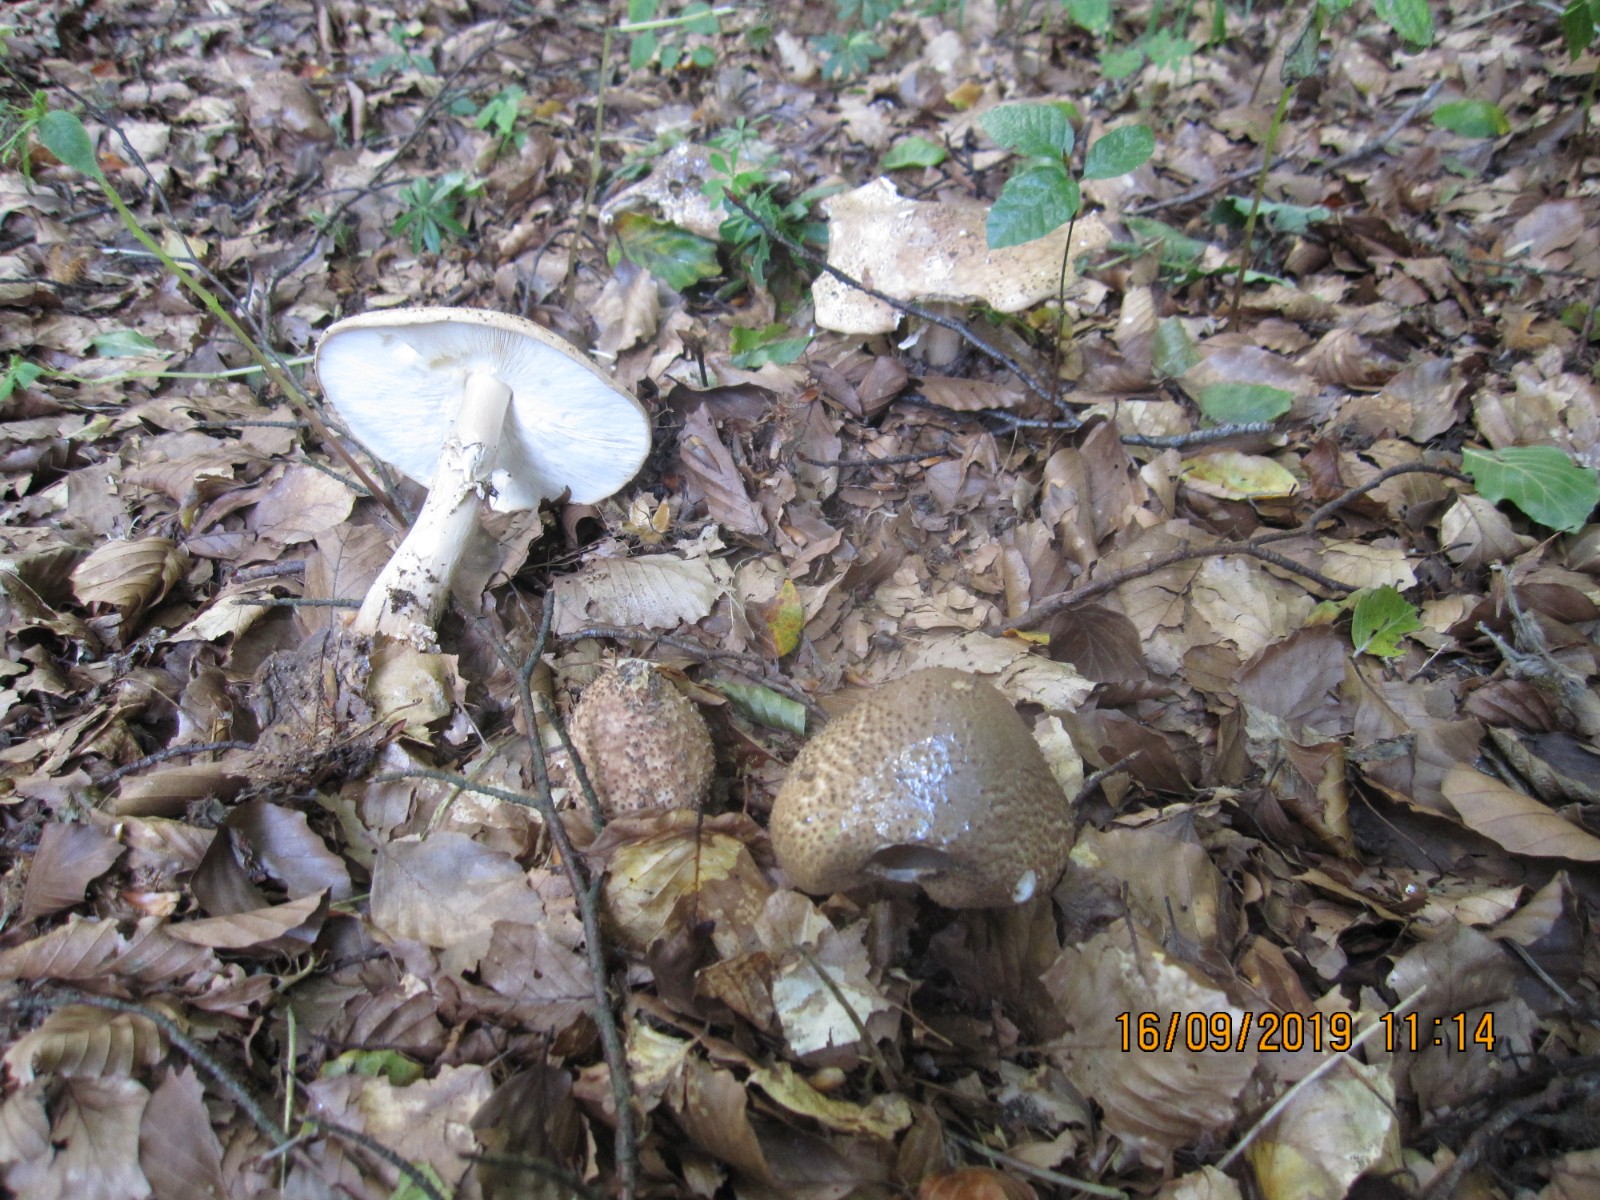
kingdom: Fungi
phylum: Basidiomycota
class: Agaricomycetes
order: Agaricales
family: Agaricaceae
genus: Echinoderma
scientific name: Echinoderma asperum
